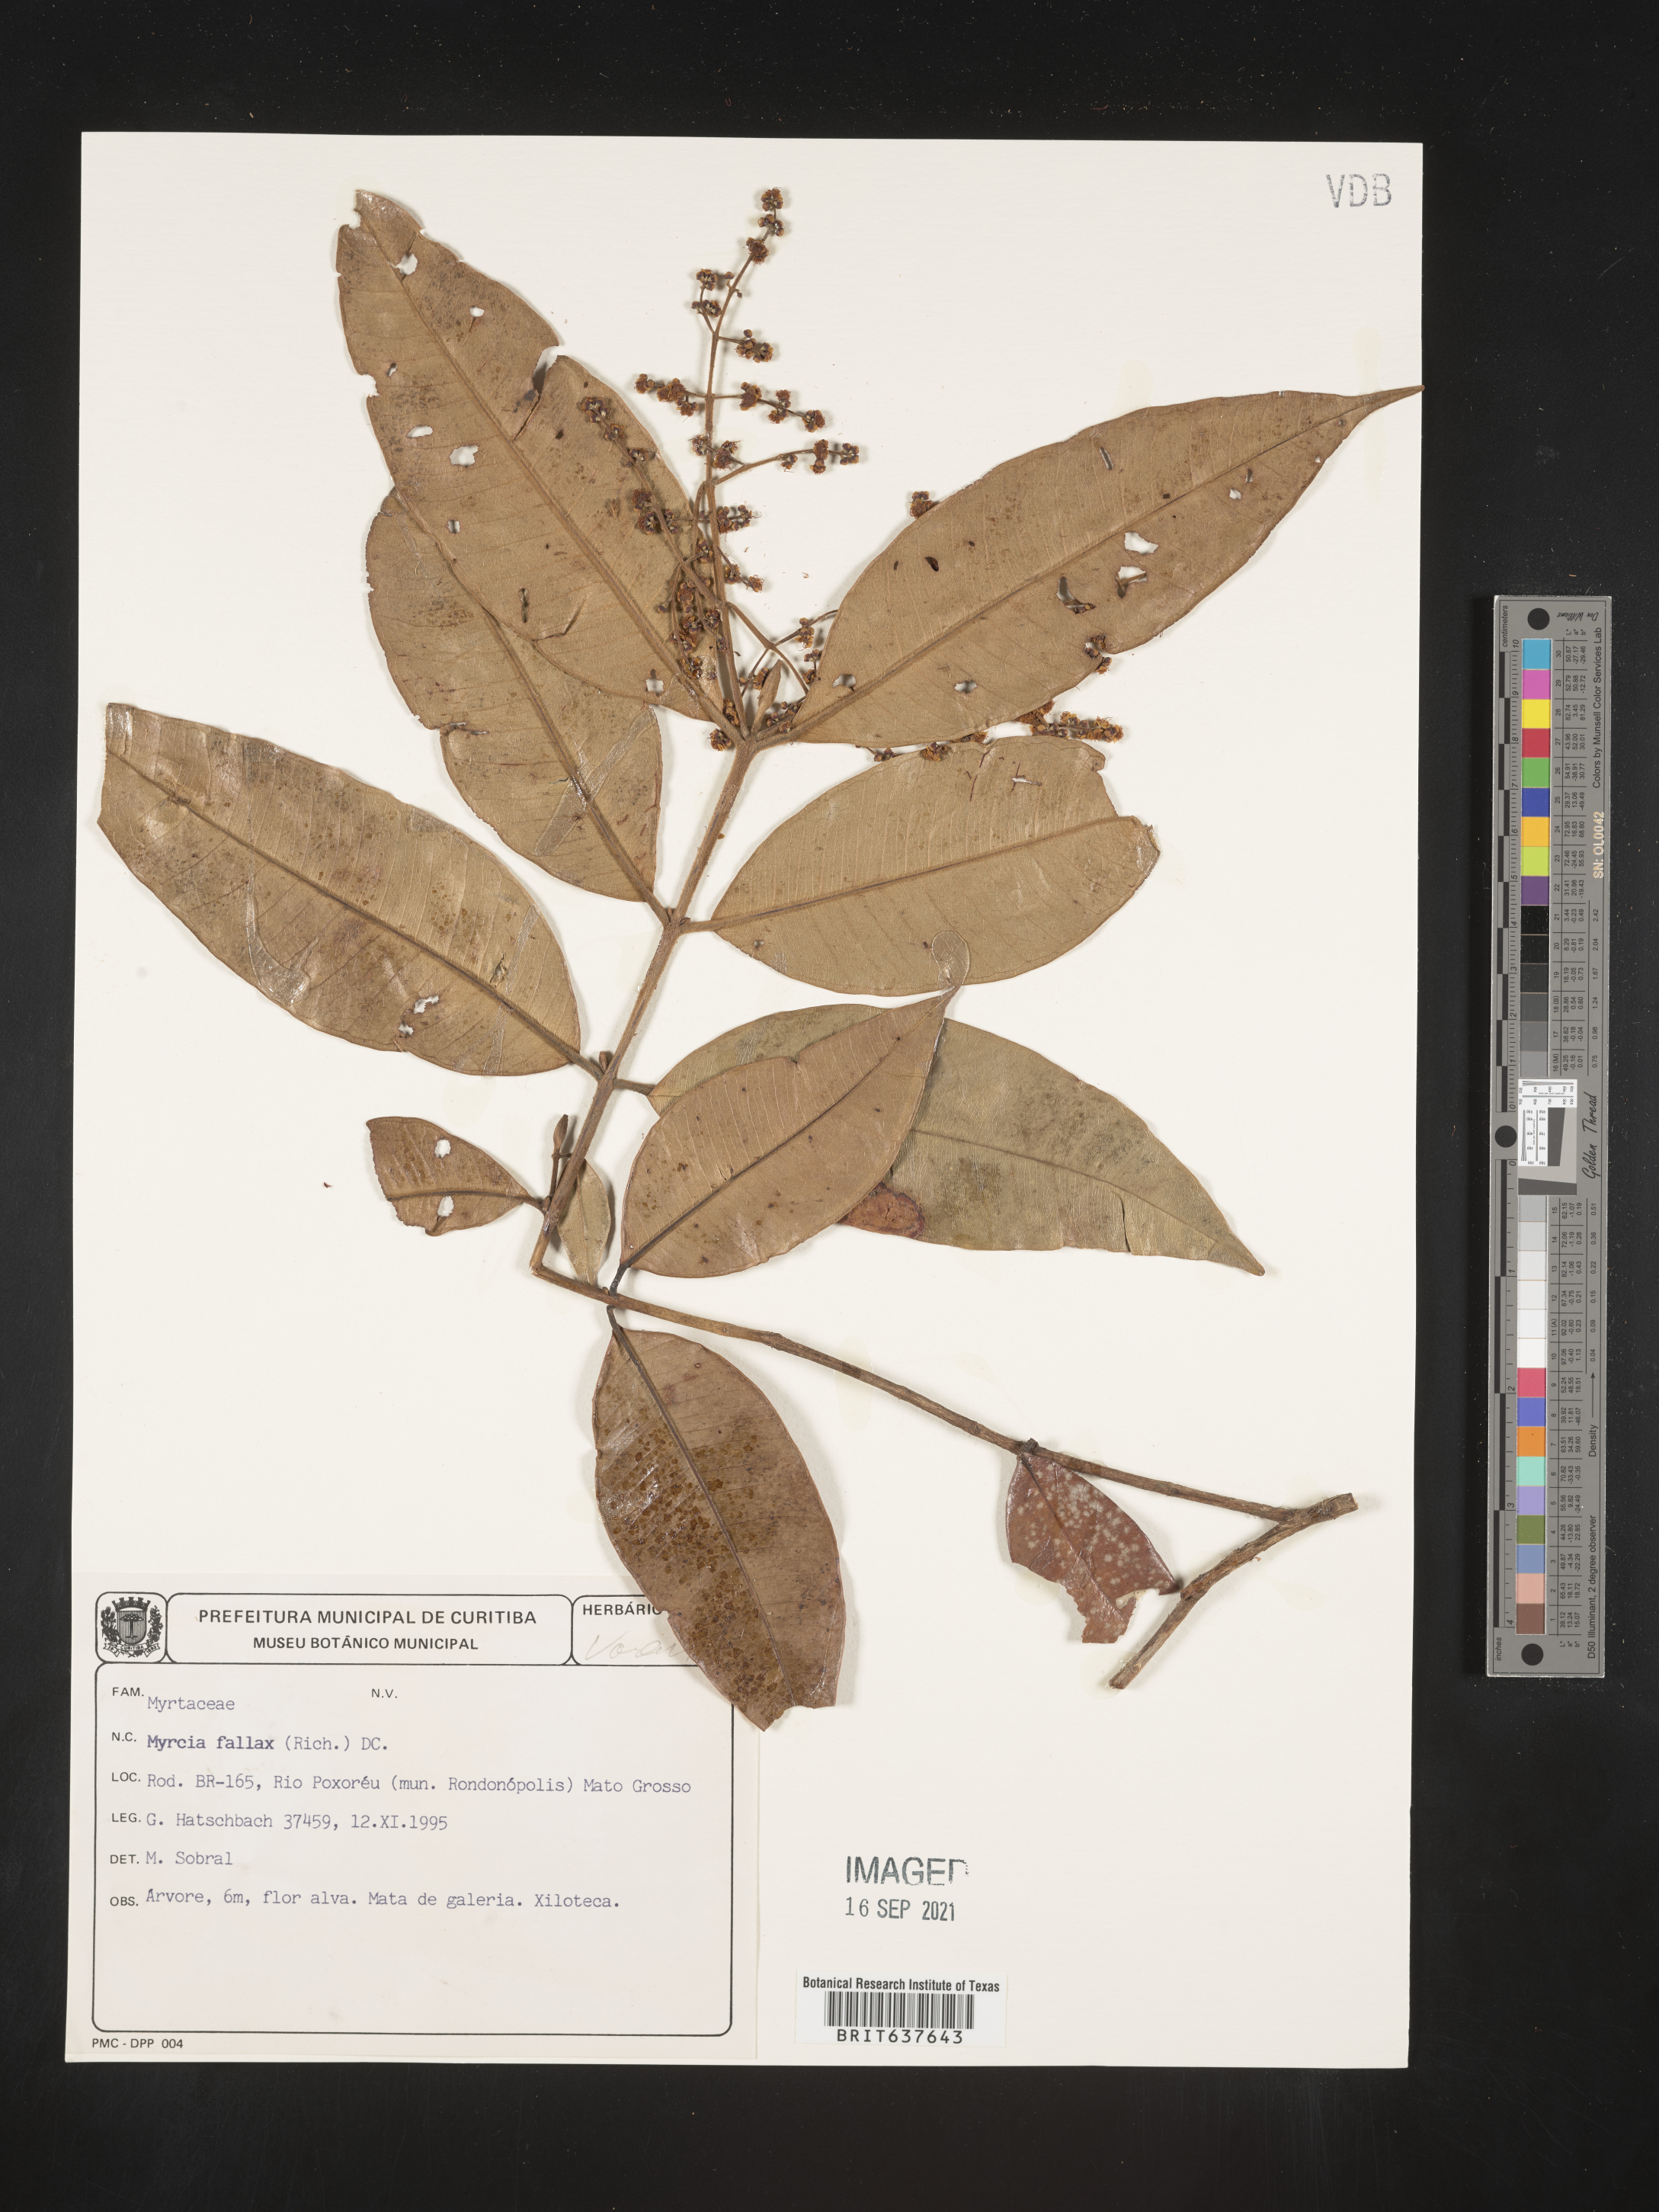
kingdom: Plantae
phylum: Tracheophyta
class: Magnoliopsida
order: Myrtales
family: Myrtaceae
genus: Myrcia
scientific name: Myrcia
